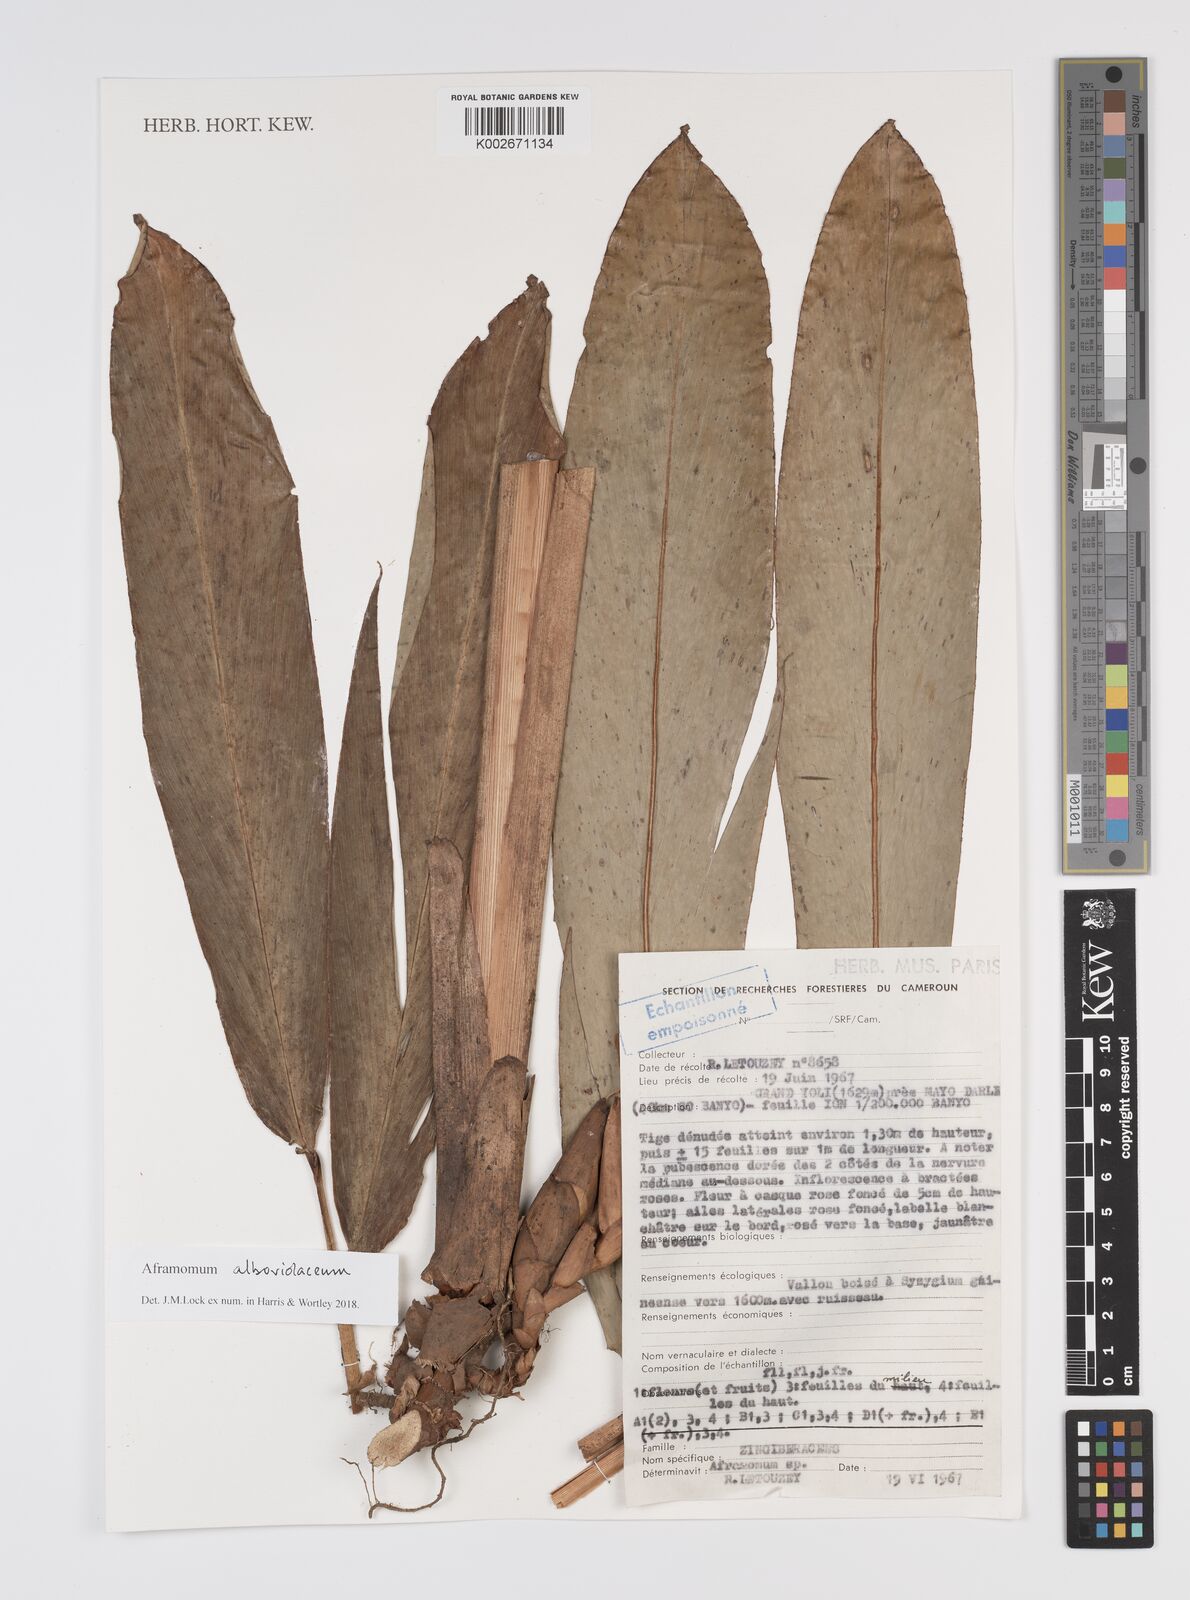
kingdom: Plantae
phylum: Tracheophyta
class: Liliopsida
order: Zingiberales
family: Zingiberaceae
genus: Aframomum
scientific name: Aframomum alboviolaceum
